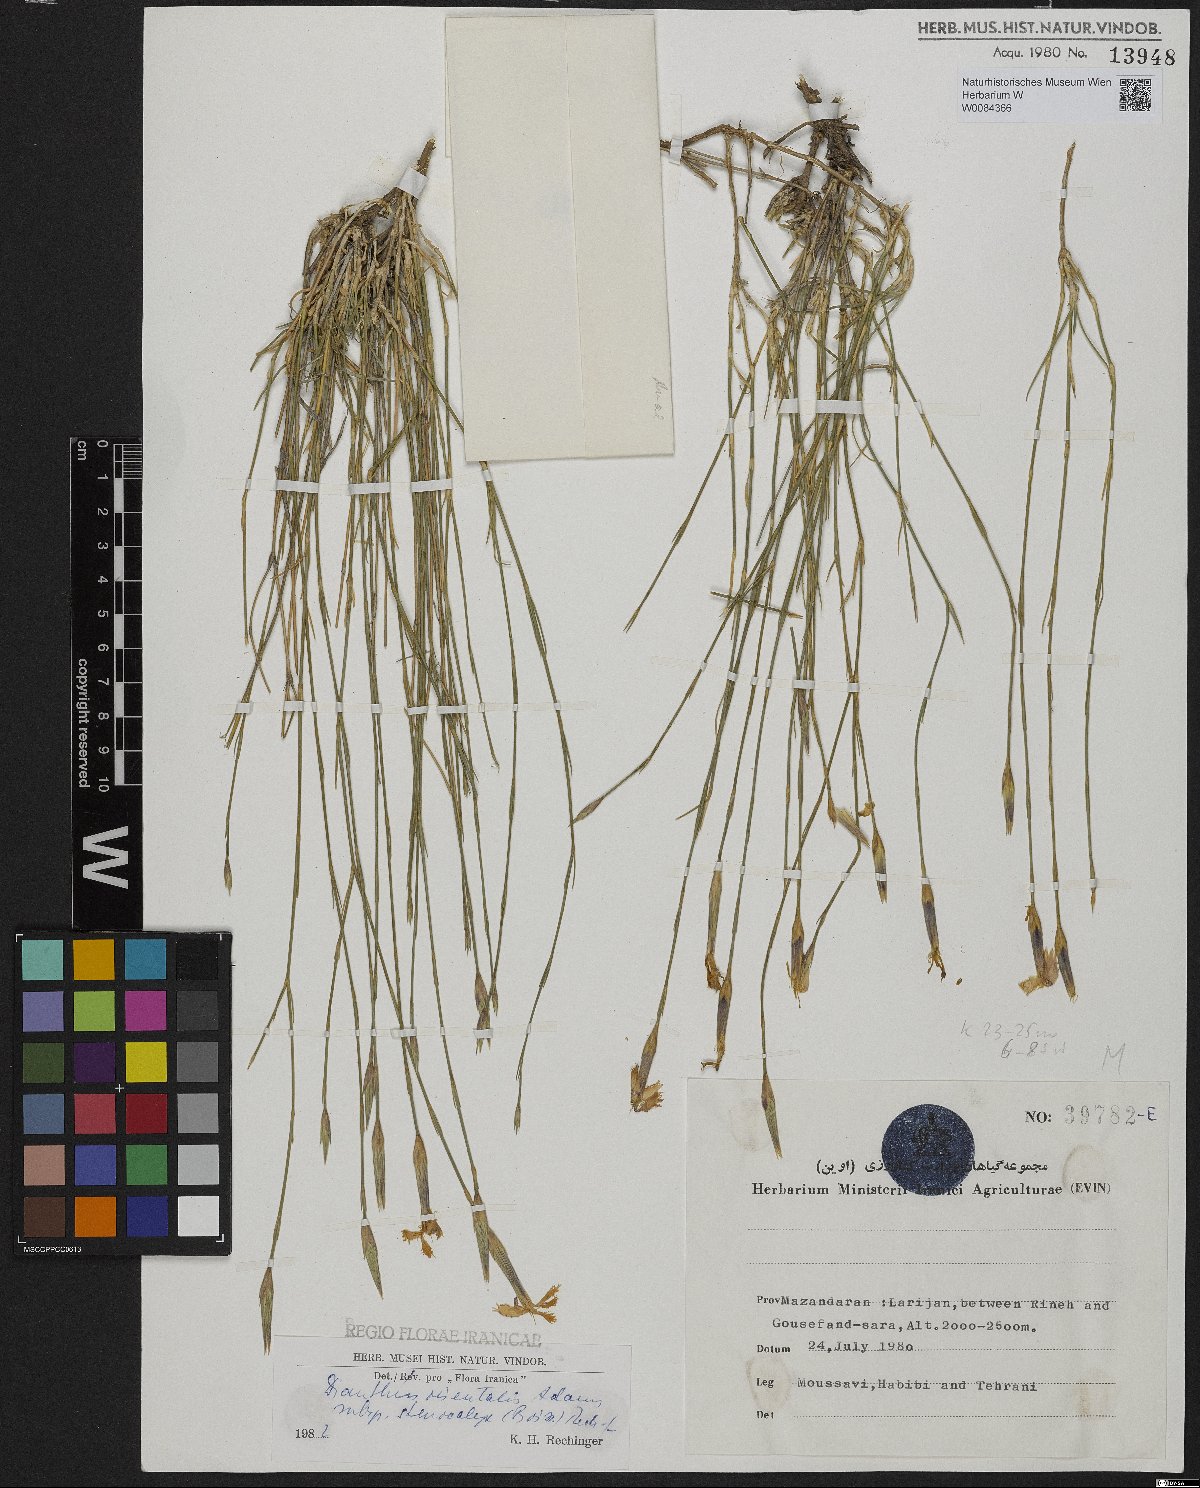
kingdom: Plantae
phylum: Tracheophyta
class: Magnoliopsida
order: Caryophyllales
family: Caryophyllaceae
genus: Dianthus
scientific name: Dianthus orientalis
